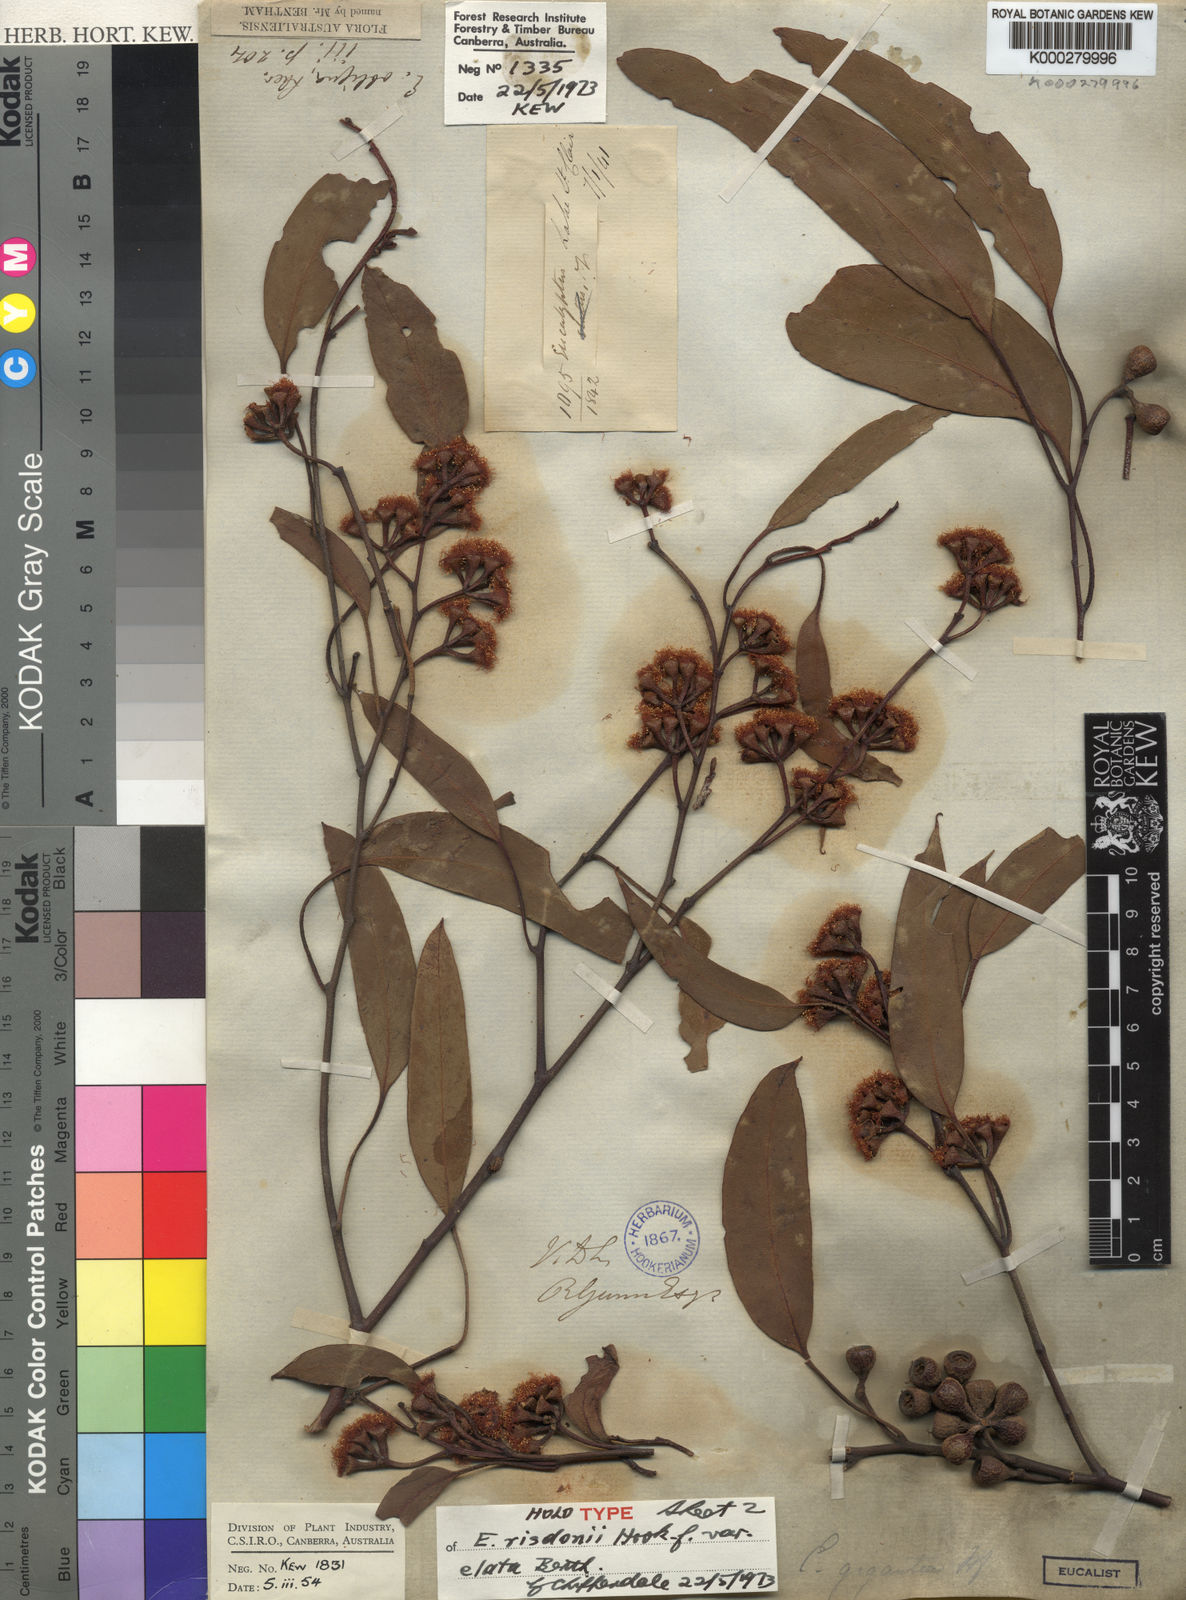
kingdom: Plantae
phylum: Tracheophyta
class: Magnoliopsida
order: Myrtales
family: Myrtaceae
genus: Eucalyptus
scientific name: Eucalyptus tenuiramis
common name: Silver peppermint
